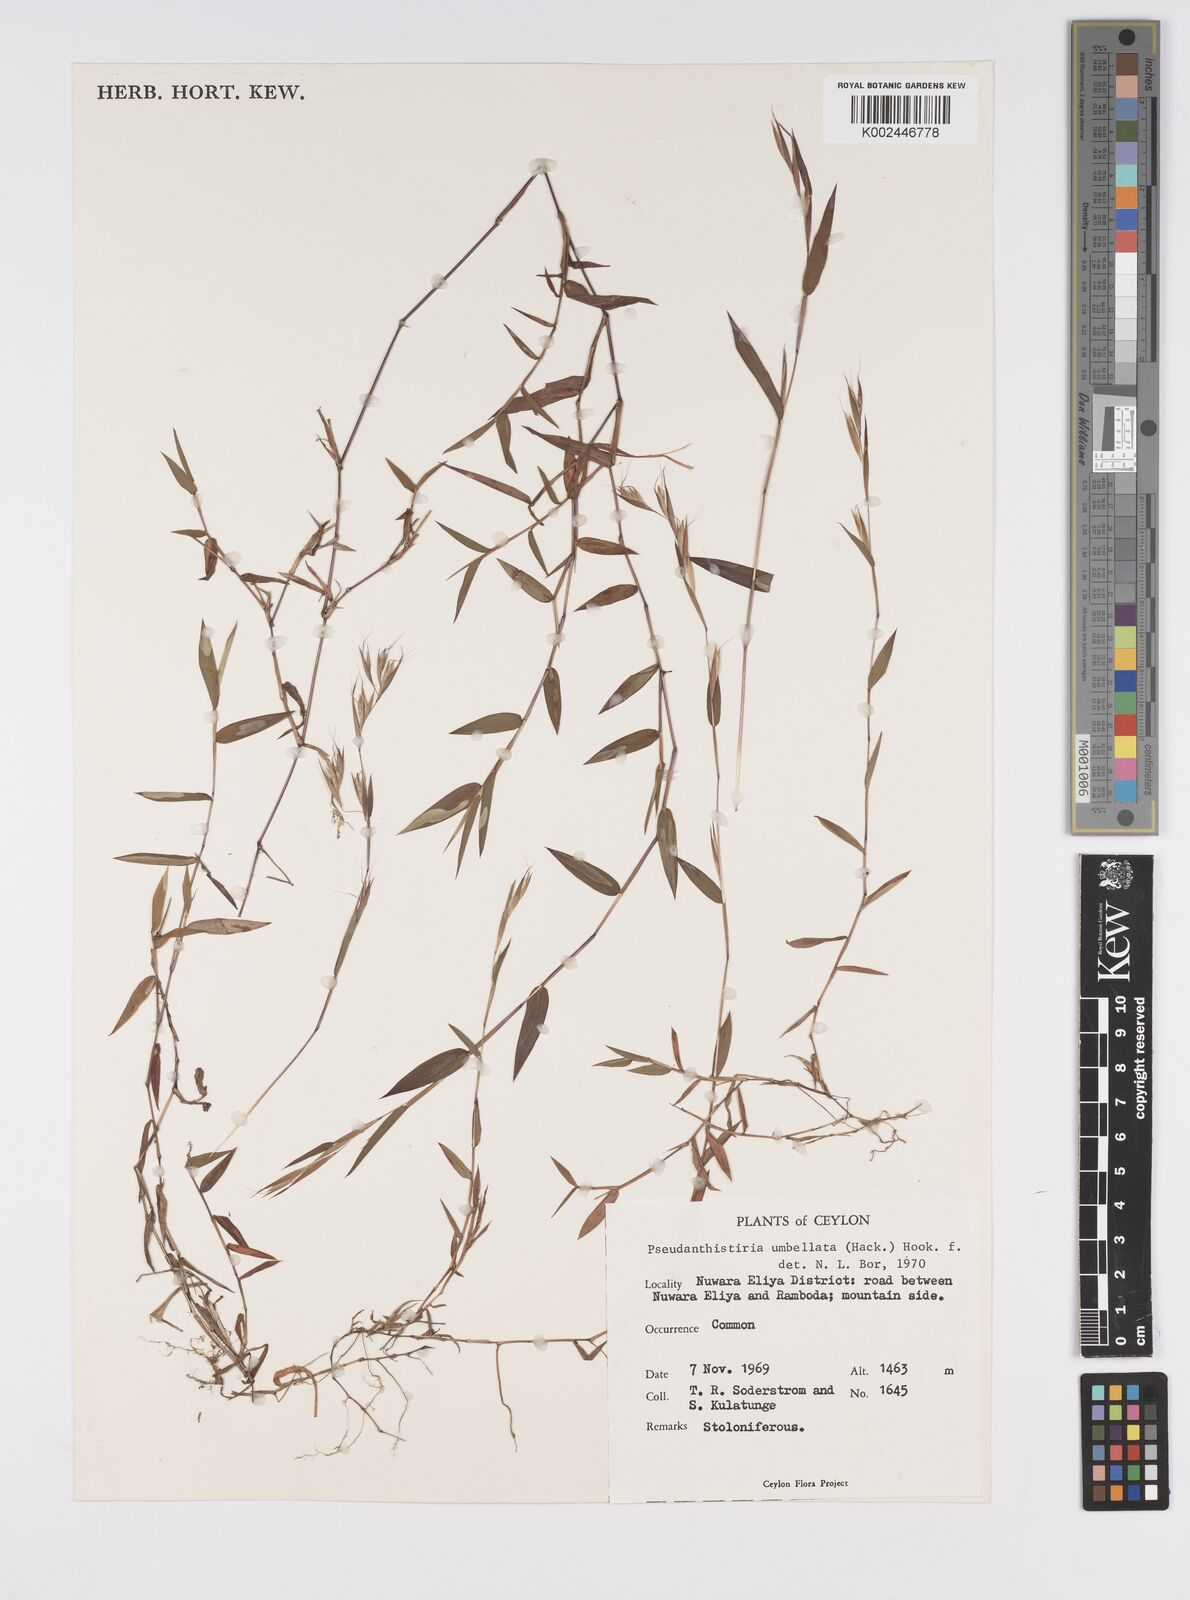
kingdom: Plantae
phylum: Tracheophyta
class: Liliopsida
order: Poales
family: Poaceae
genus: Pseudanthistiria
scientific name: Pseudanthistiria umbellata
